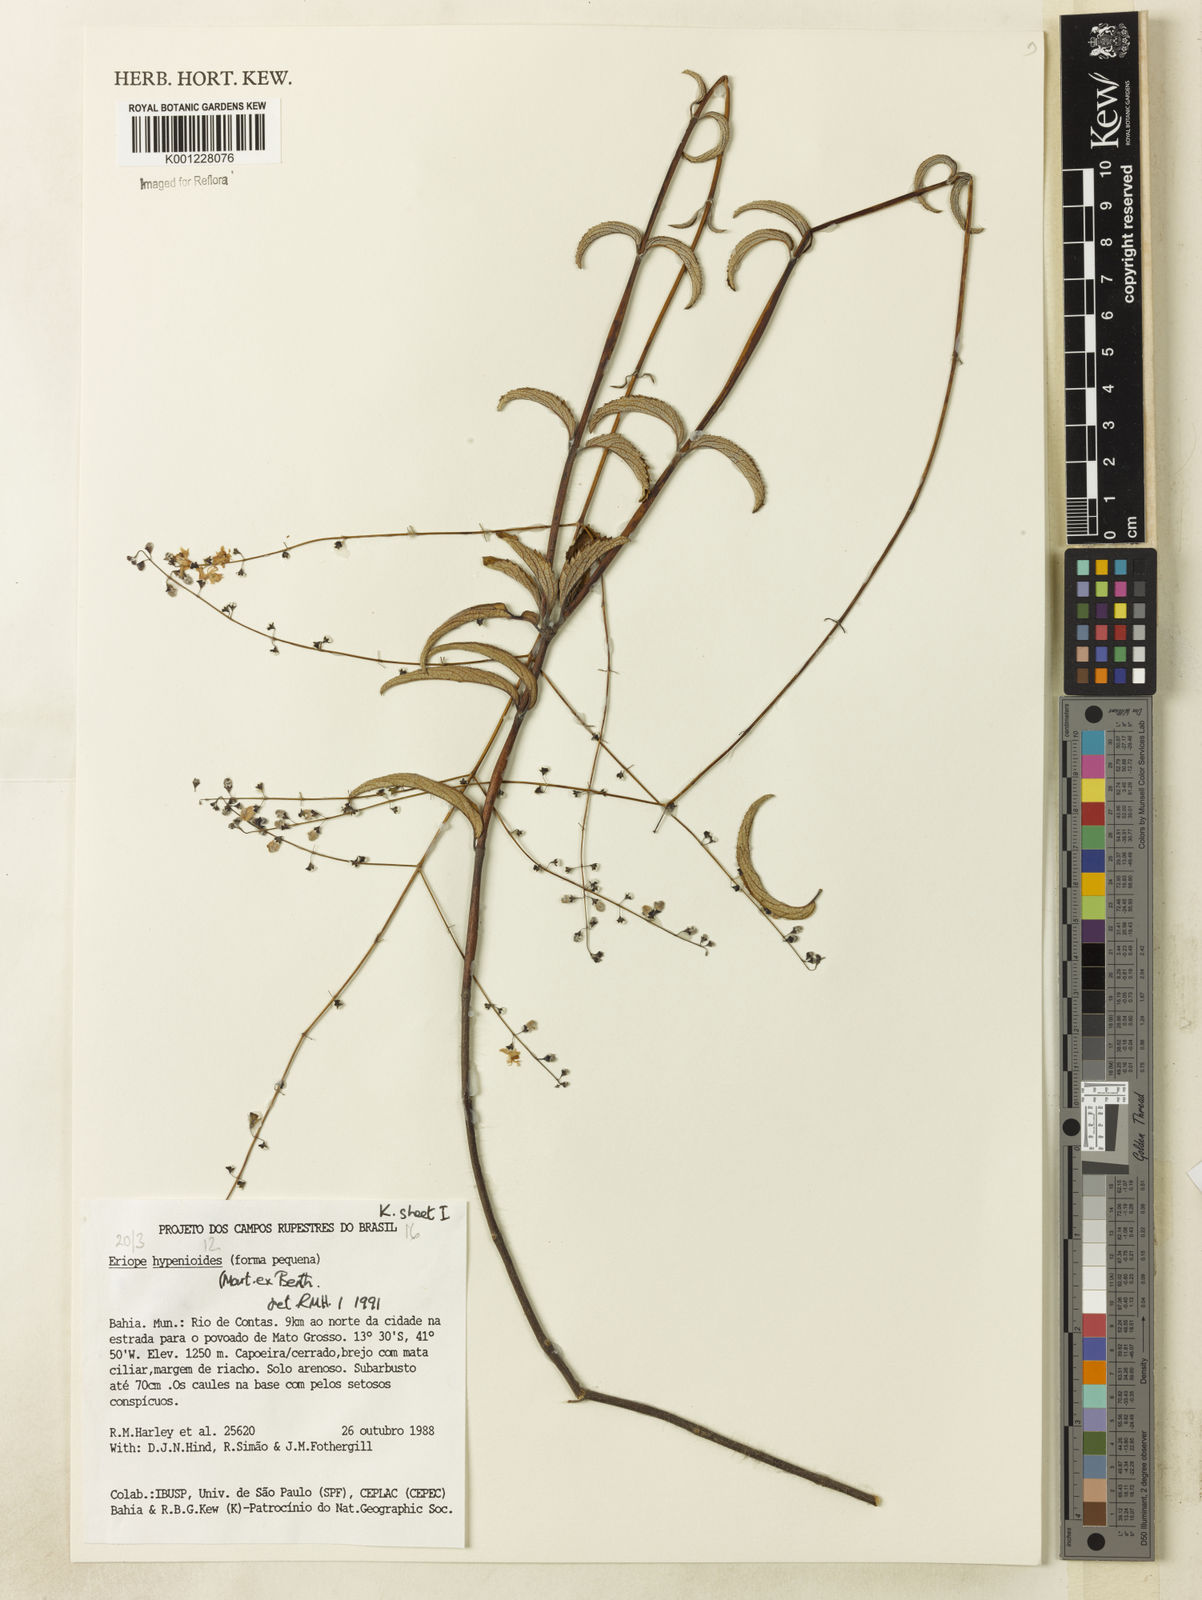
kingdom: Plantae
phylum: Tracheophyta
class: Magnoliopsida
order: Lamiales
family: Lamiaceae
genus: Eriope
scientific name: Eriope hypenioides
